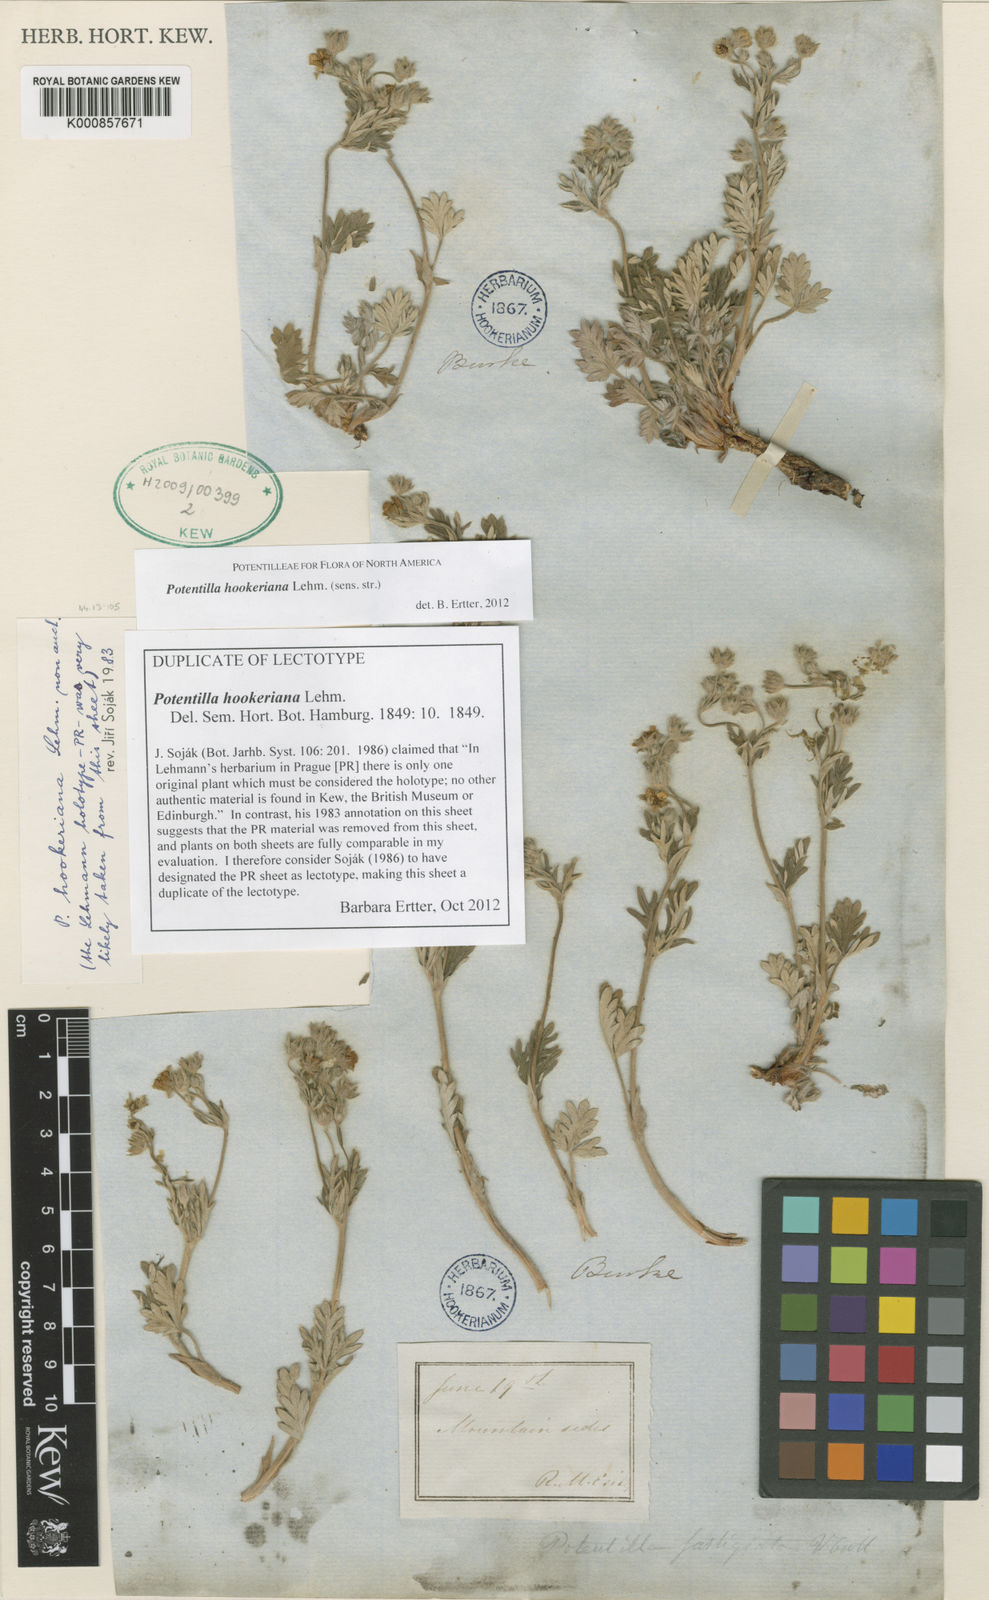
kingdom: Plantae
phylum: Tracheophyta
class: Magnoliopsida
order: Rosales
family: Rosaceae
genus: Potentilla
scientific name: Potentilla hookeriana
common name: Hooker's cinquefoil
